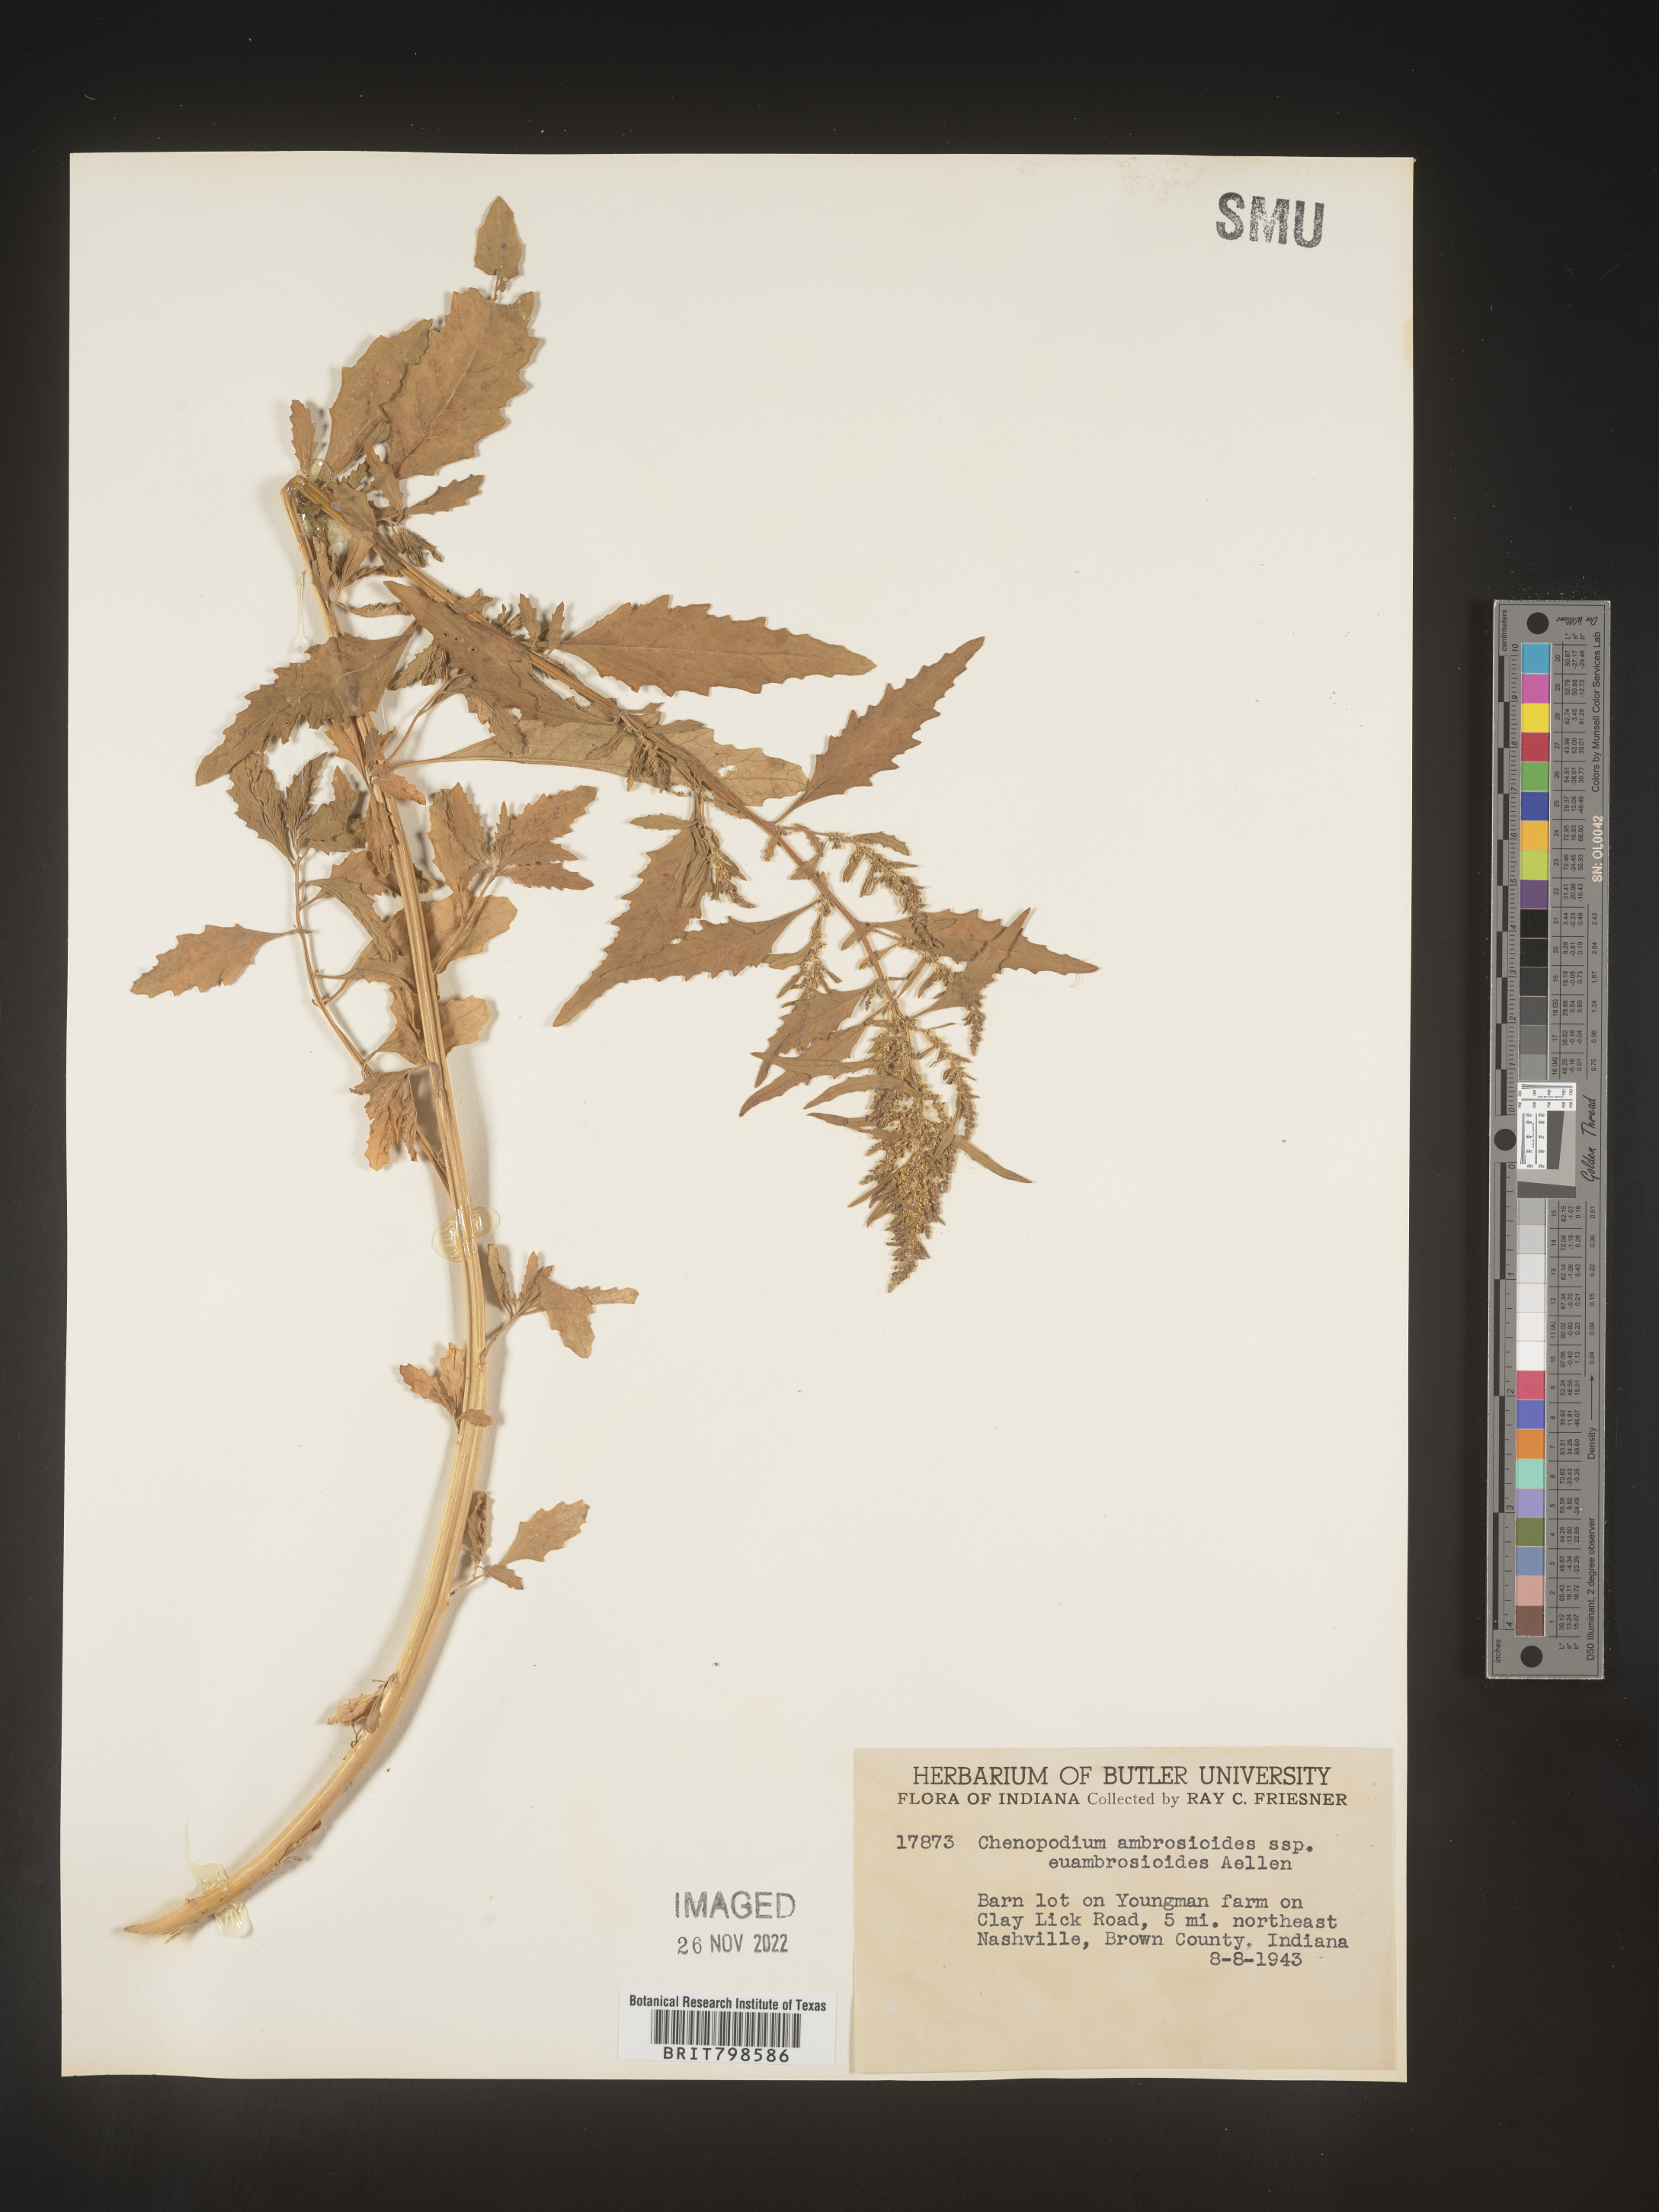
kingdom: Plantae
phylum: Tracheophyta
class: Magnoliopsida
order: Caryophyllales
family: Amaranthaceae
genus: Dysphania
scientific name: Dysphania ambrosioides
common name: Wormseed
